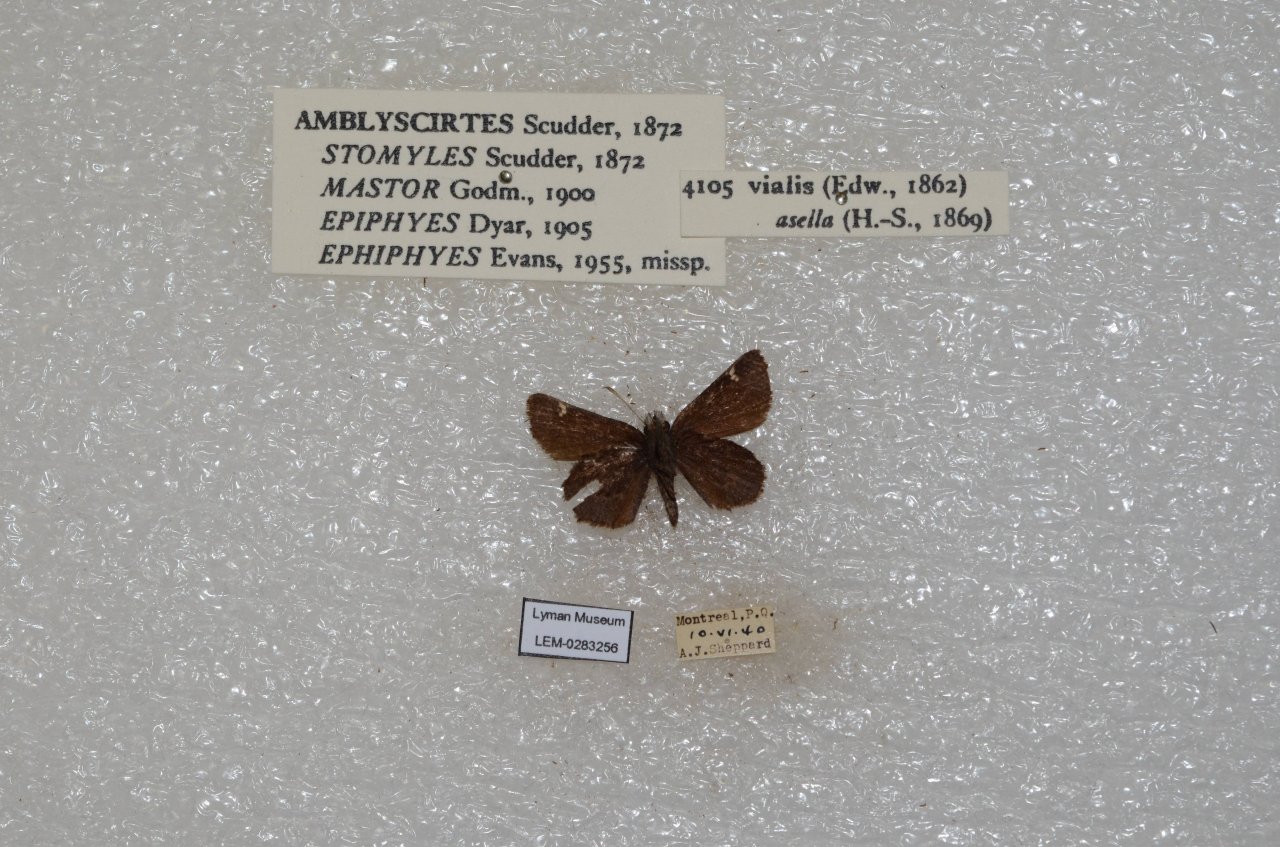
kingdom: Animalia
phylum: Arthropoda
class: Insecta
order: Lepidoptera
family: Hesperiidae
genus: Mastor
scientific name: Mastor vialis
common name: Common Roadside-Skipper
